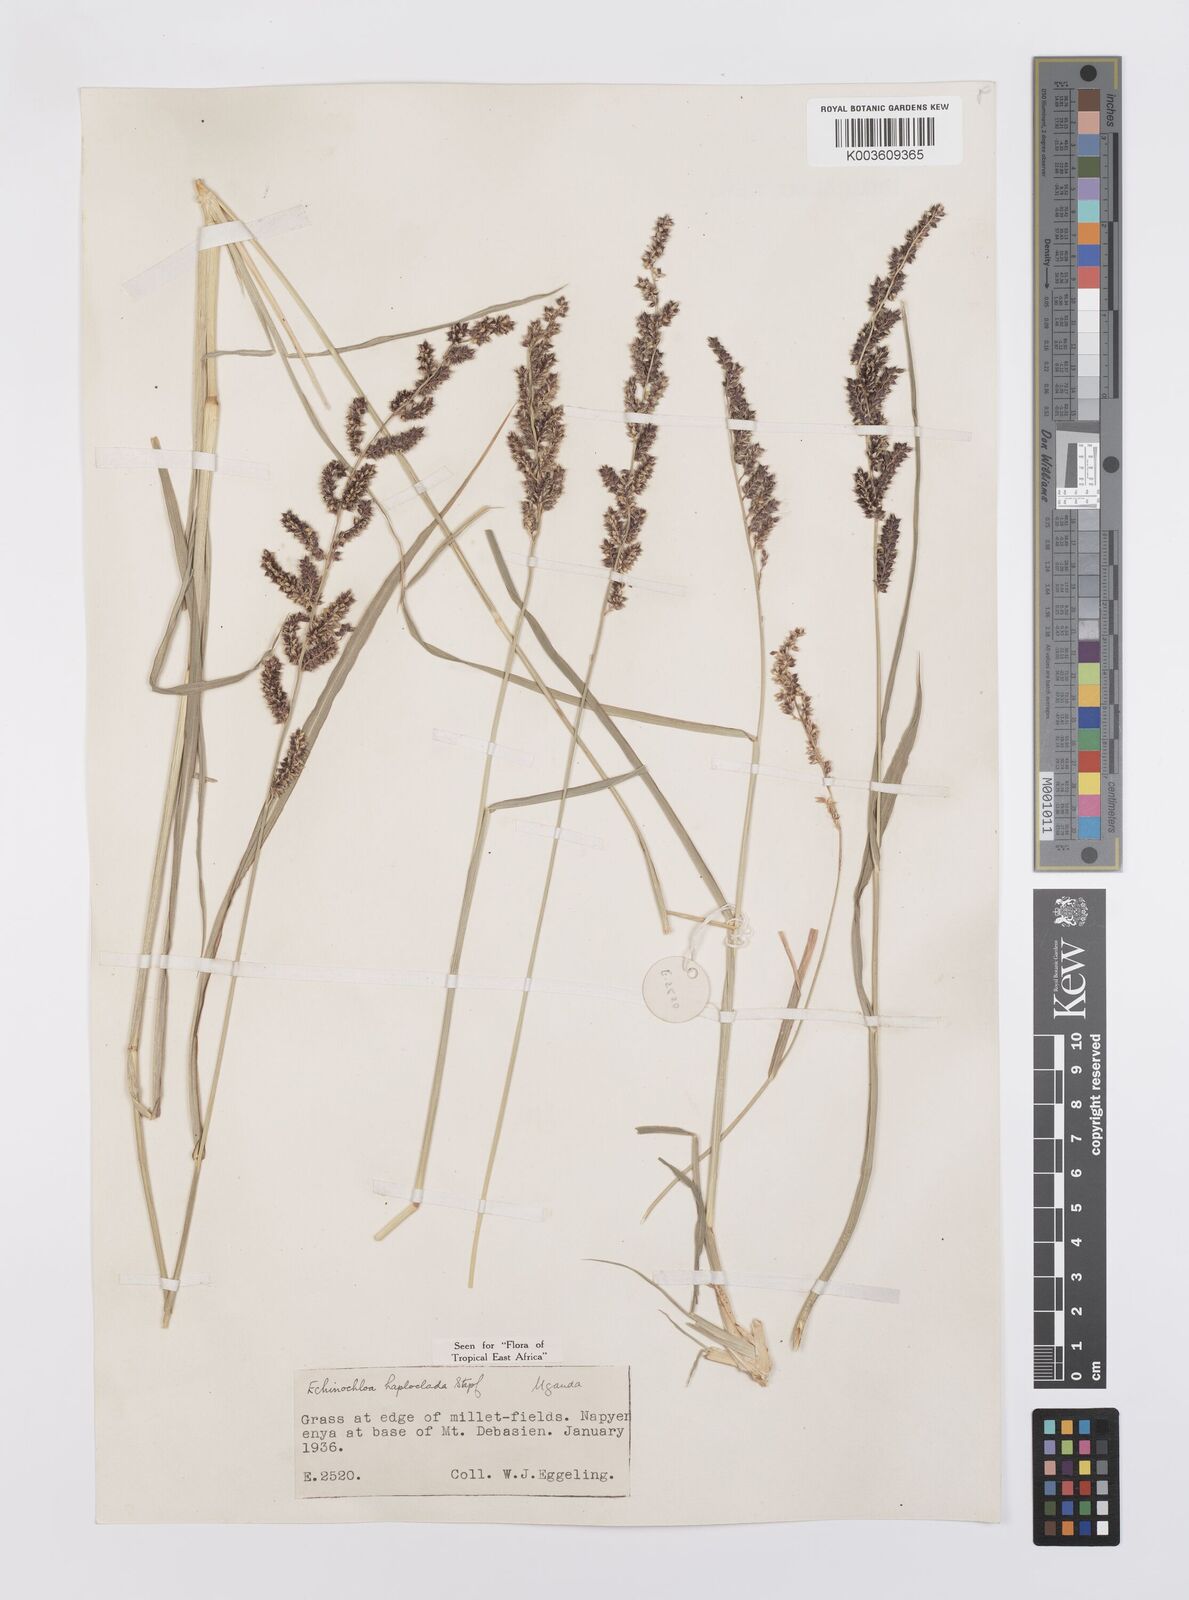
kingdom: Plantae
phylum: Tracheophyta
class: Liliopsida
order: Poales
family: Poaceae
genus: Echinochloa
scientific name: Echinochloa haploclada
